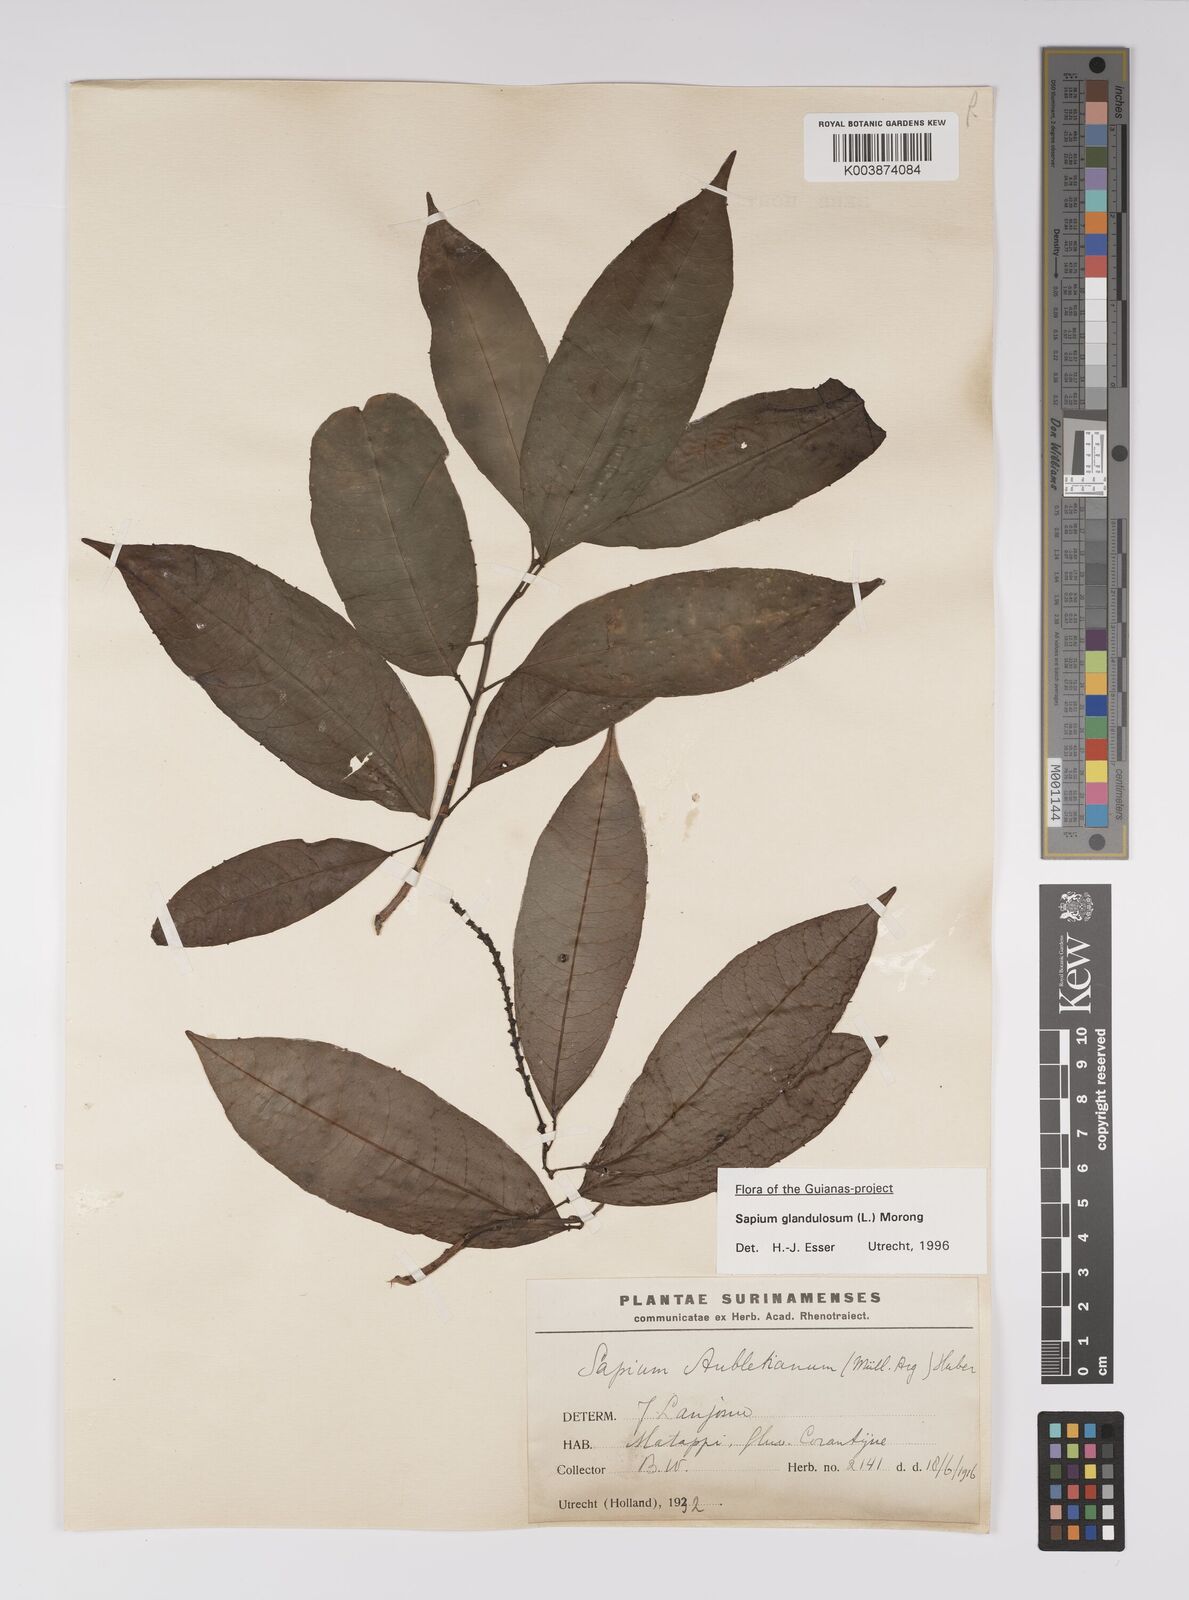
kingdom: Plantae
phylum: Tracheophyta
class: Magnoliopsida
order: Malpighiales
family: Euphorbiaceae
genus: Sapium
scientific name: Sapium glandulosum
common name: Milktree
